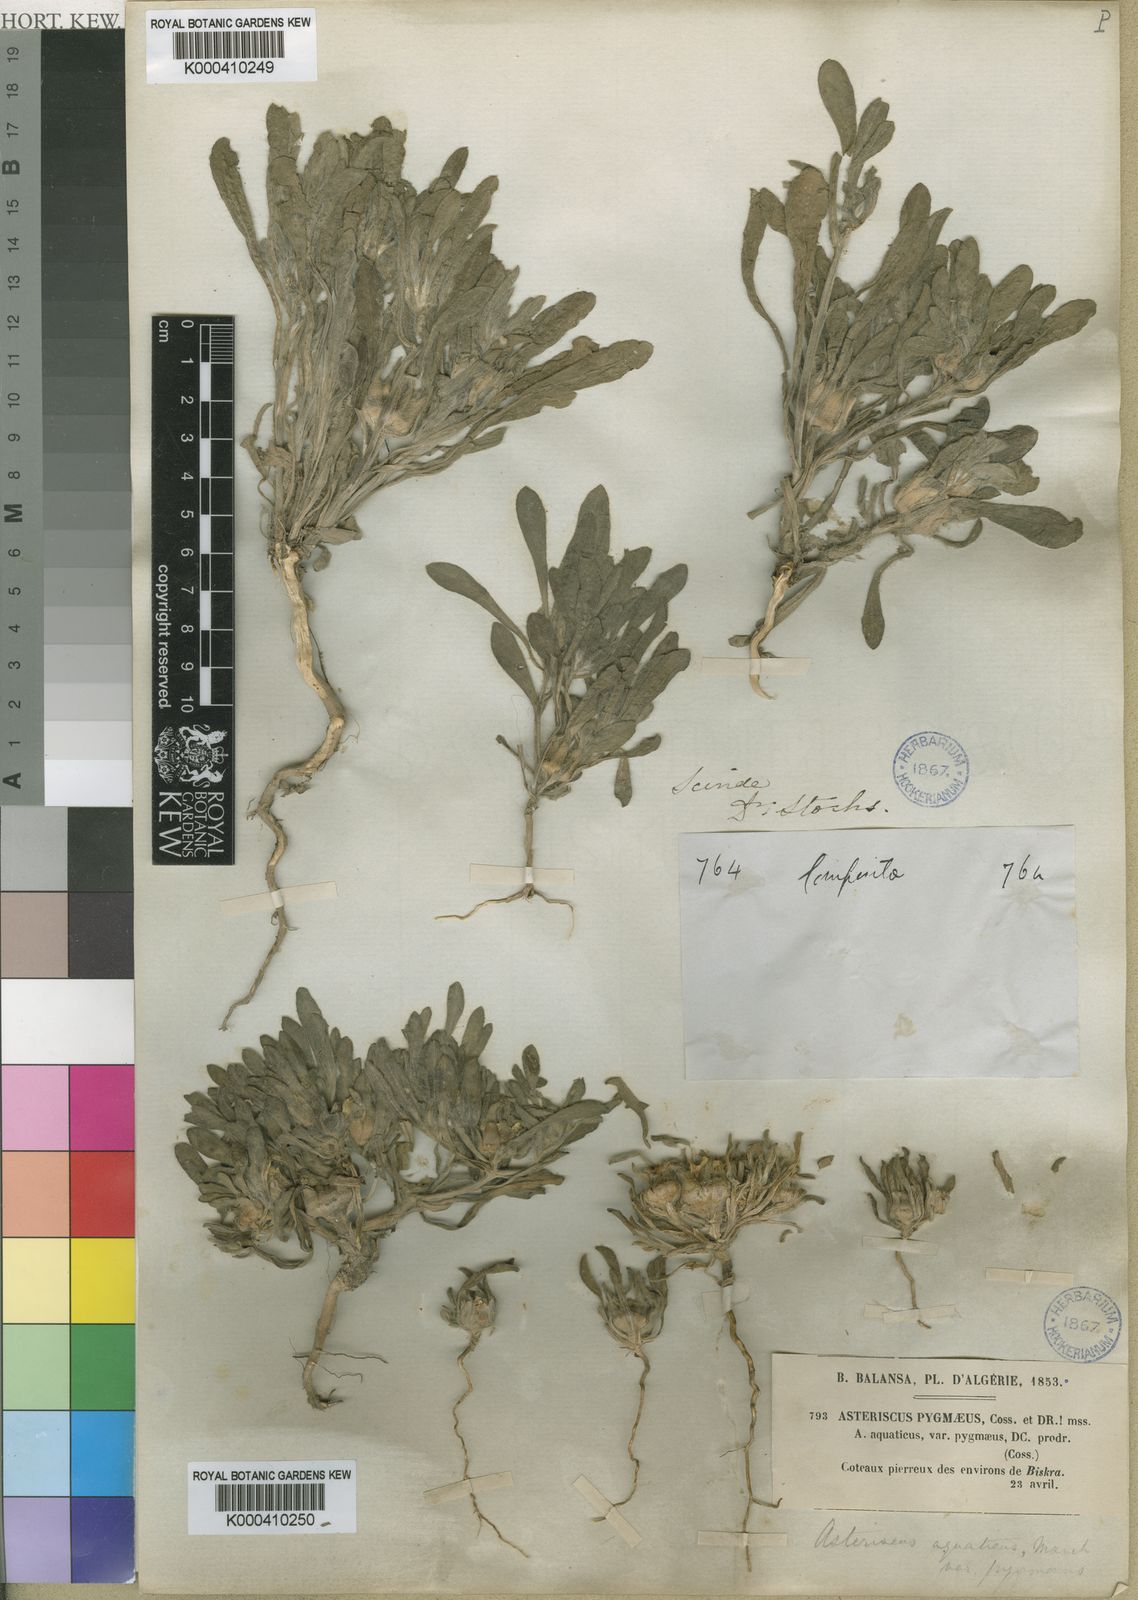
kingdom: Plantae
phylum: Tracheophyta
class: Magnoliopsida
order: Asterales
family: Asteraceae
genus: Pallenis
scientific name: Pallenis hierochuntica
